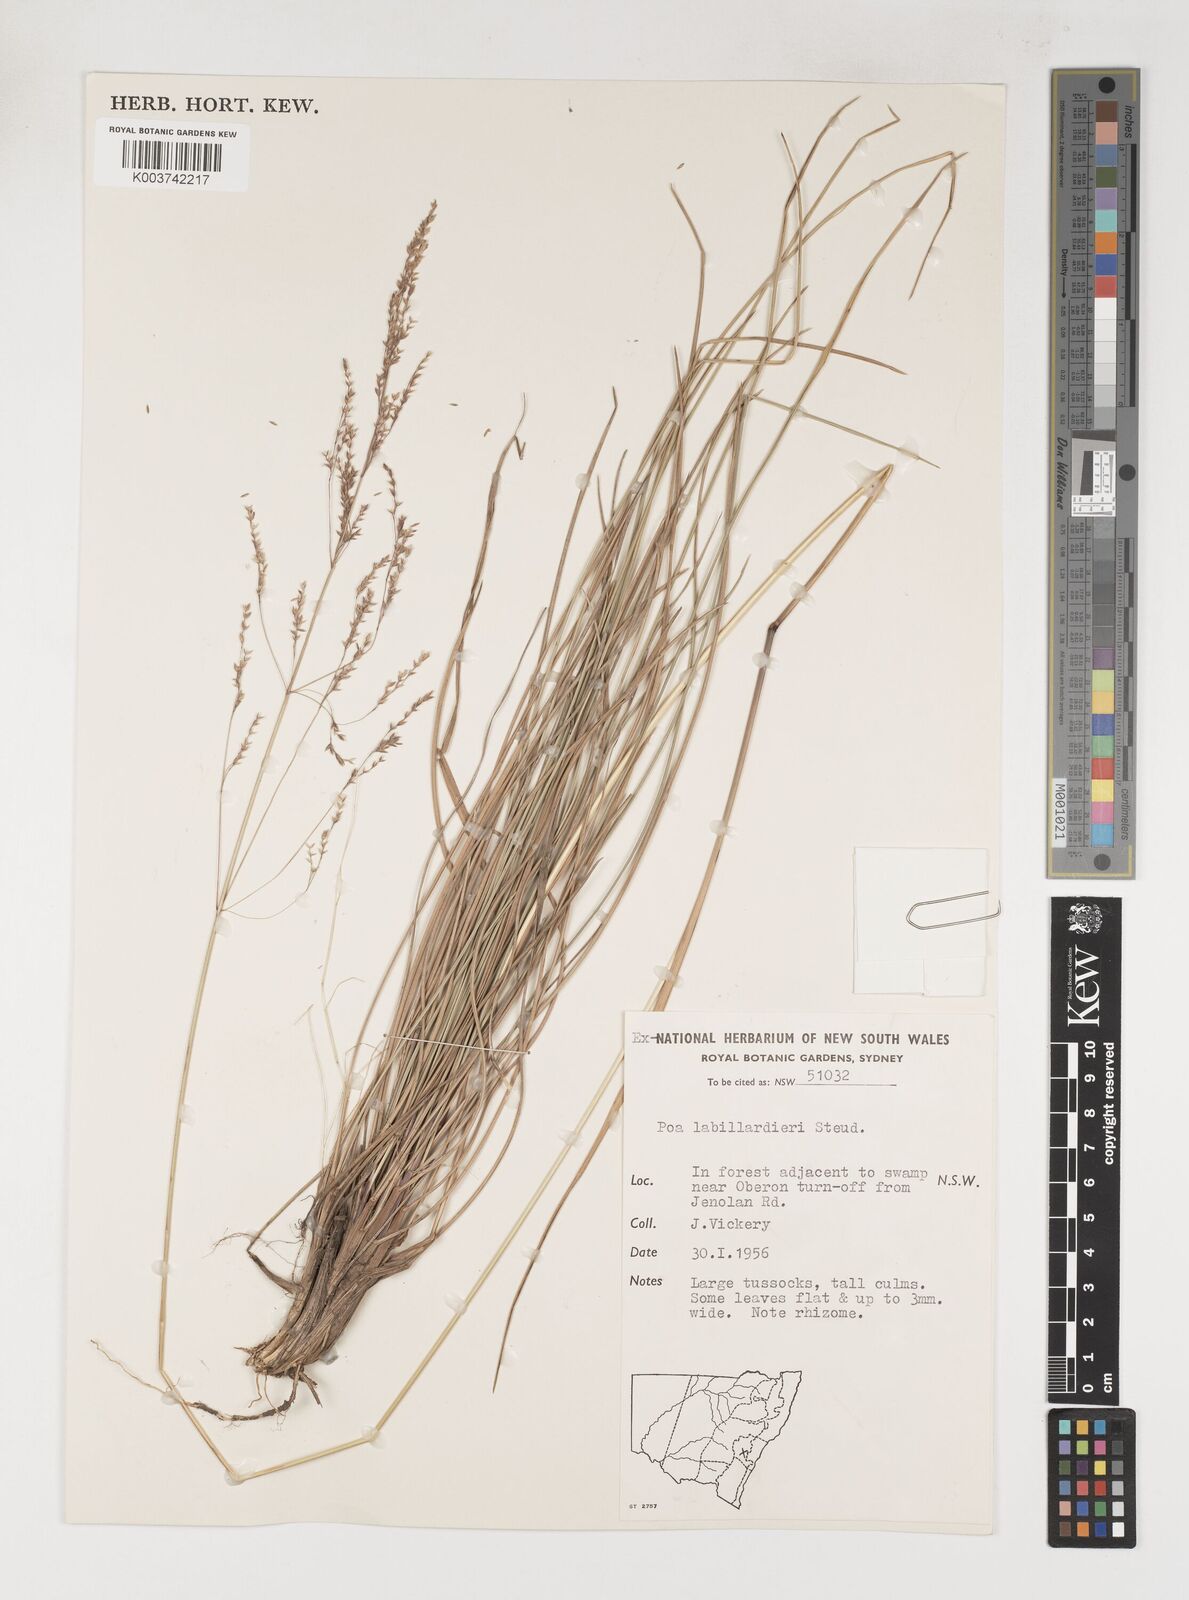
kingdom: Plantae
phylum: Tracheophyta
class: Liliopsida
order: Poales
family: Poaceae
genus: Poa
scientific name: Poa labillardierei
